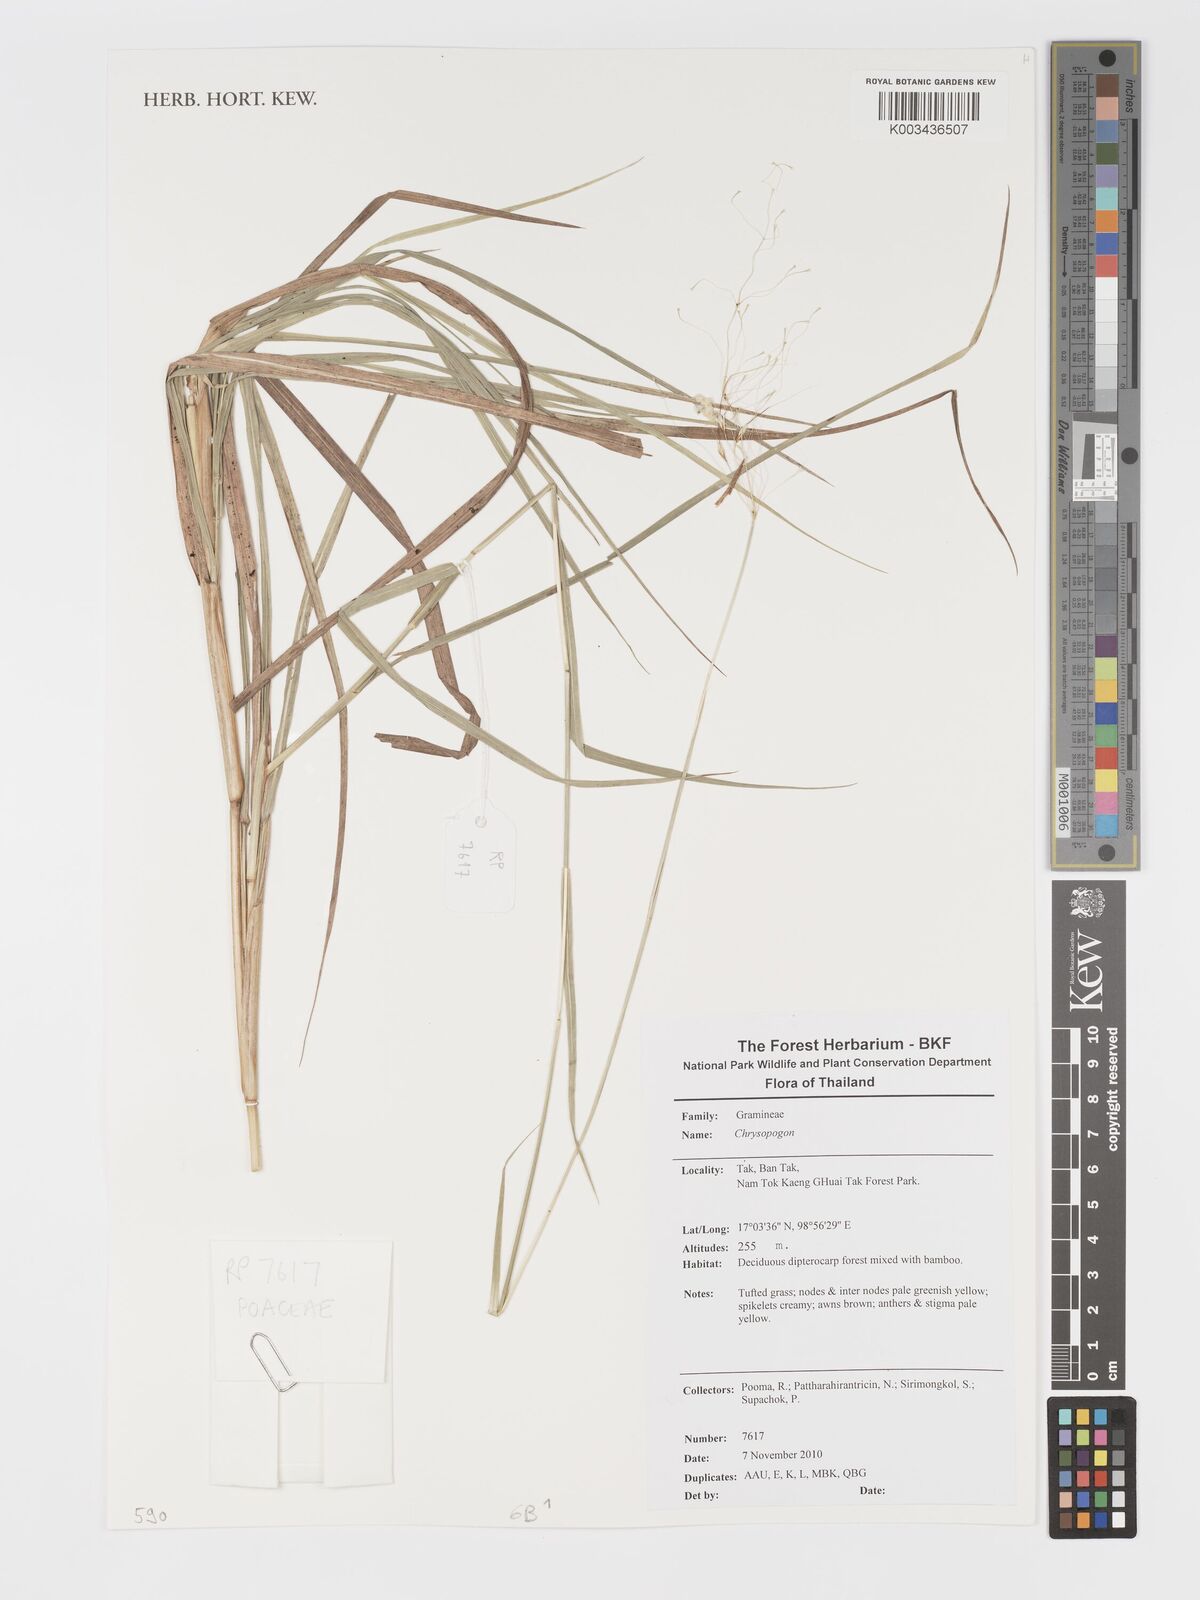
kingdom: Plantae
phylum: Tracheophyta
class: Liliopsida
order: Poales
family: Poaceae
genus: Chrysopogon
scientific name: Chrysopogon
